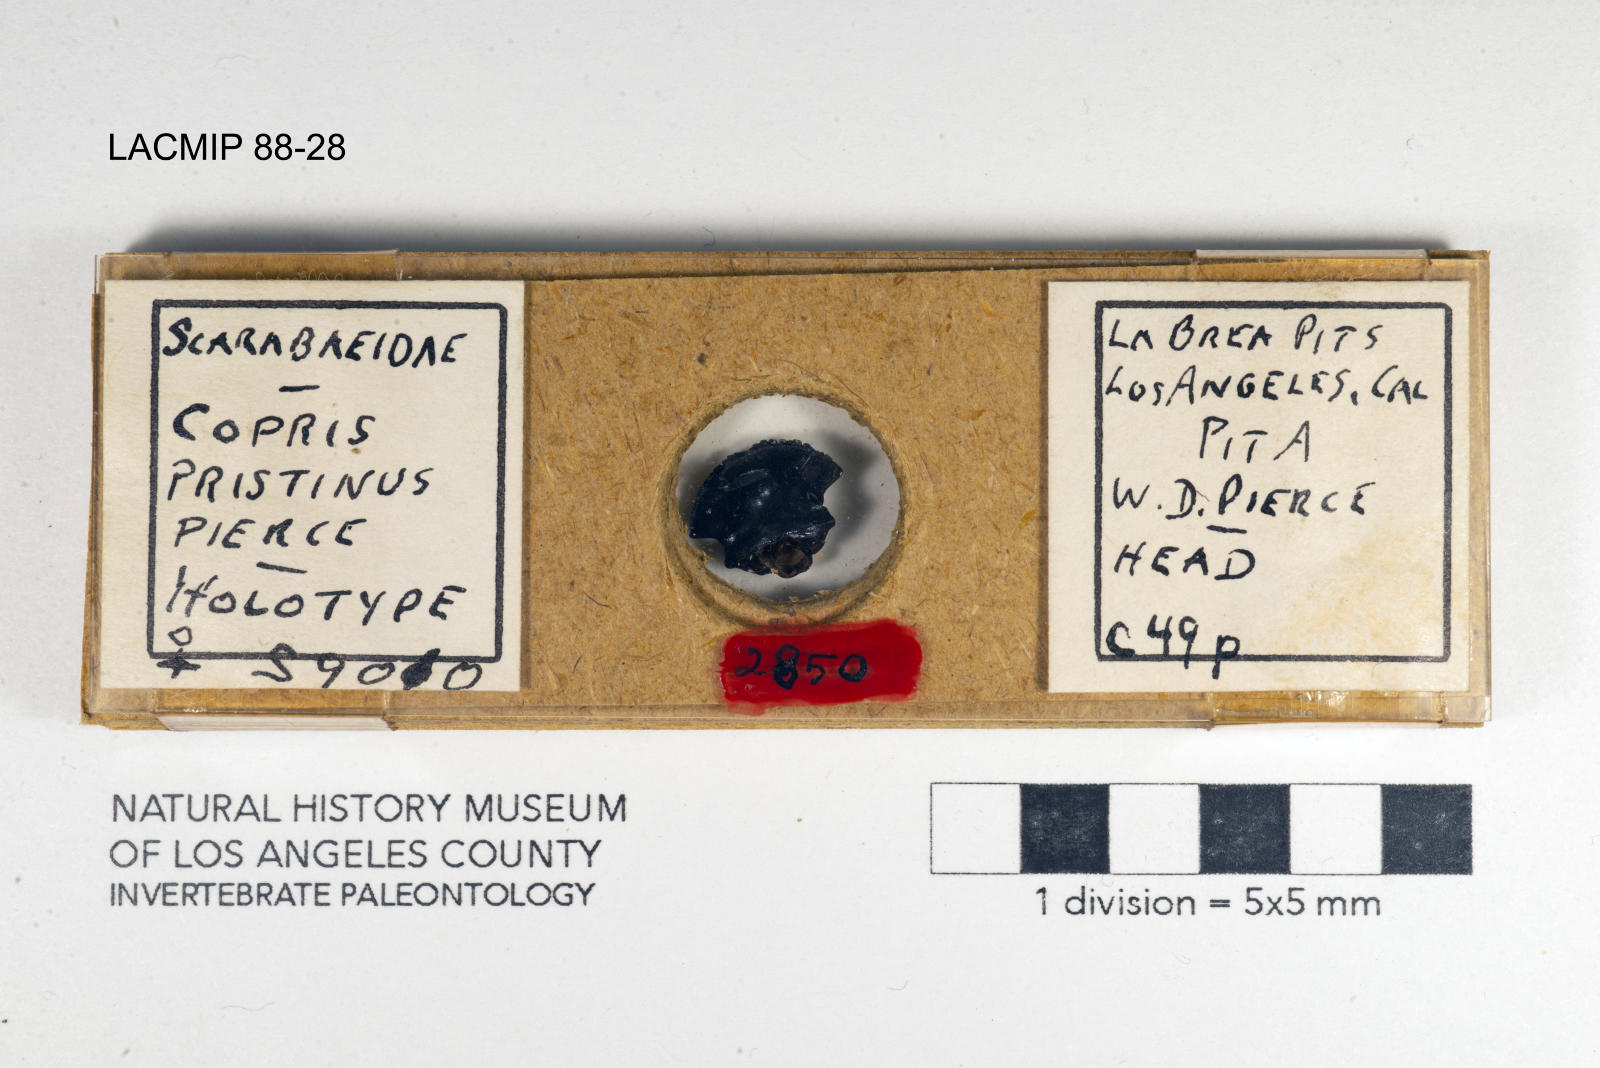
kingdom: Animalia
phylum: Arthropoda
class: Insecta
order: Coleoptera
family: Scarabaeidae
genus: Copris
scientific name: Copris pristinus
